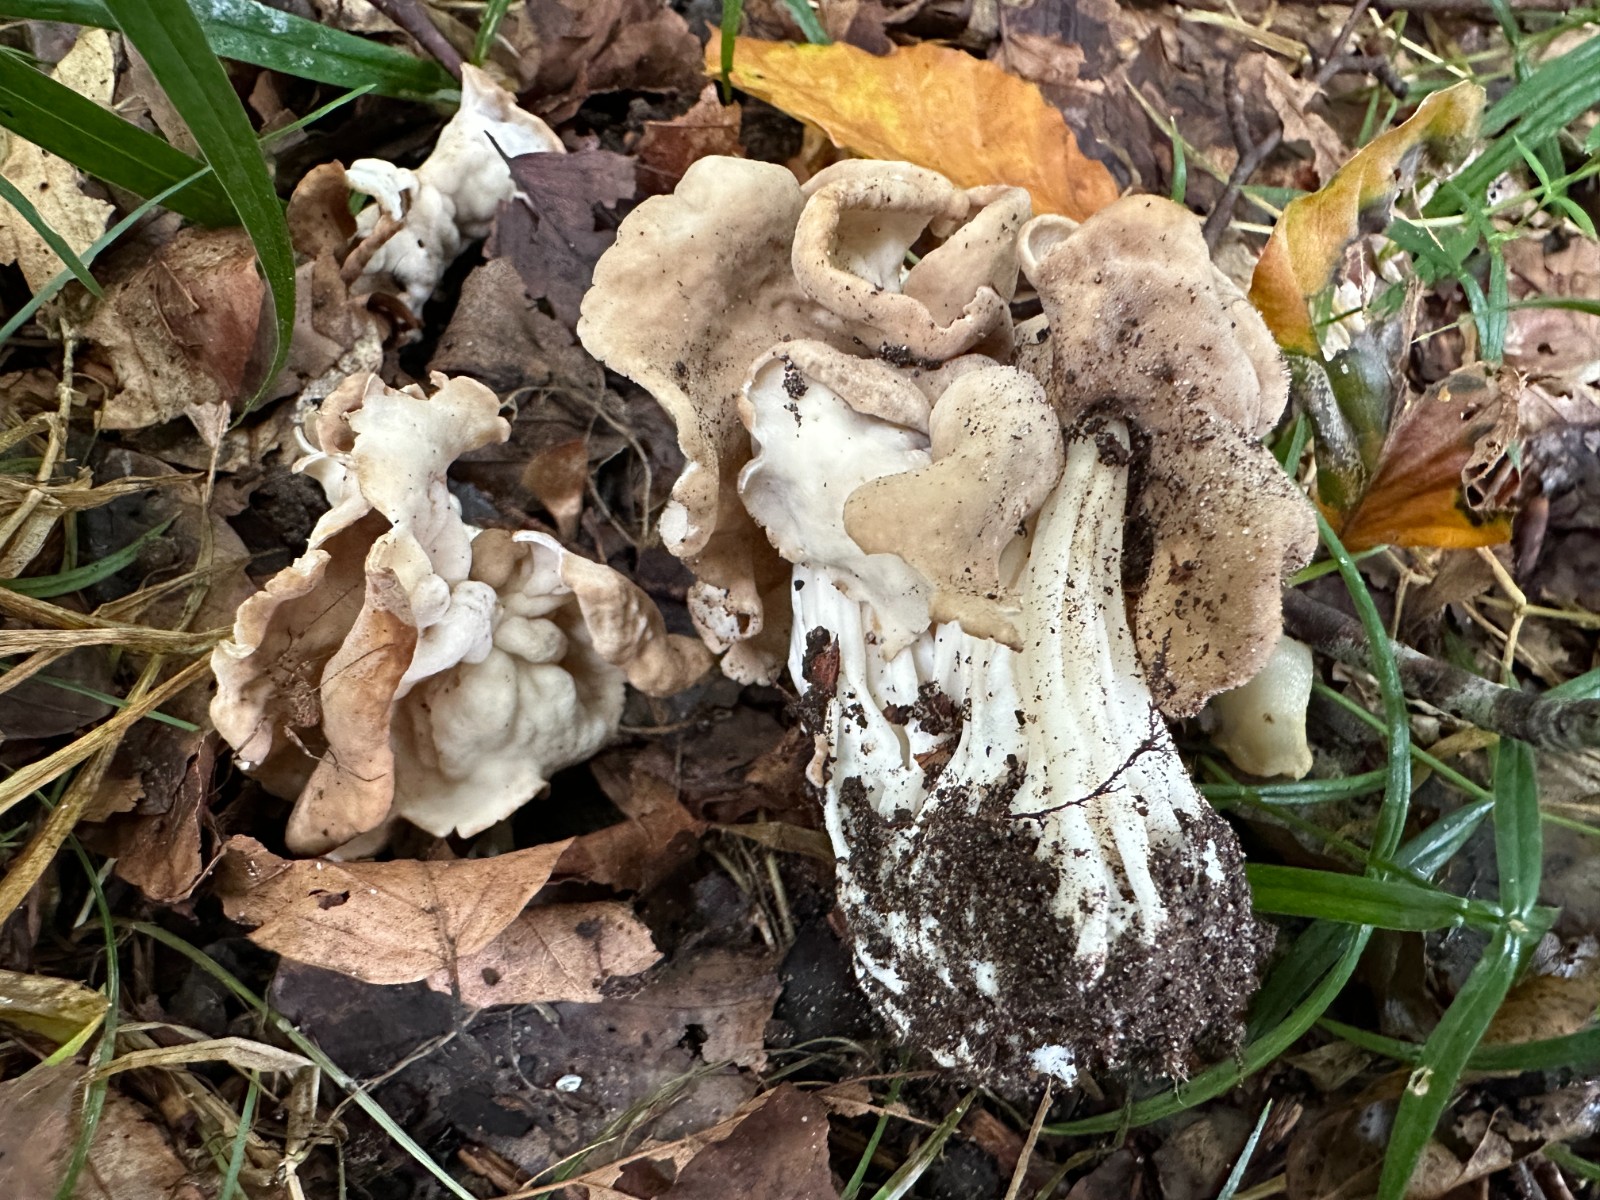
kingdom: Fungi
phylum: Ascomycota
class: Pezizomycetes
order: Pezizales
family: Helvellaceae
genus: Helvella
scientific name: Helvella crispa
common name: kruset foldhat
